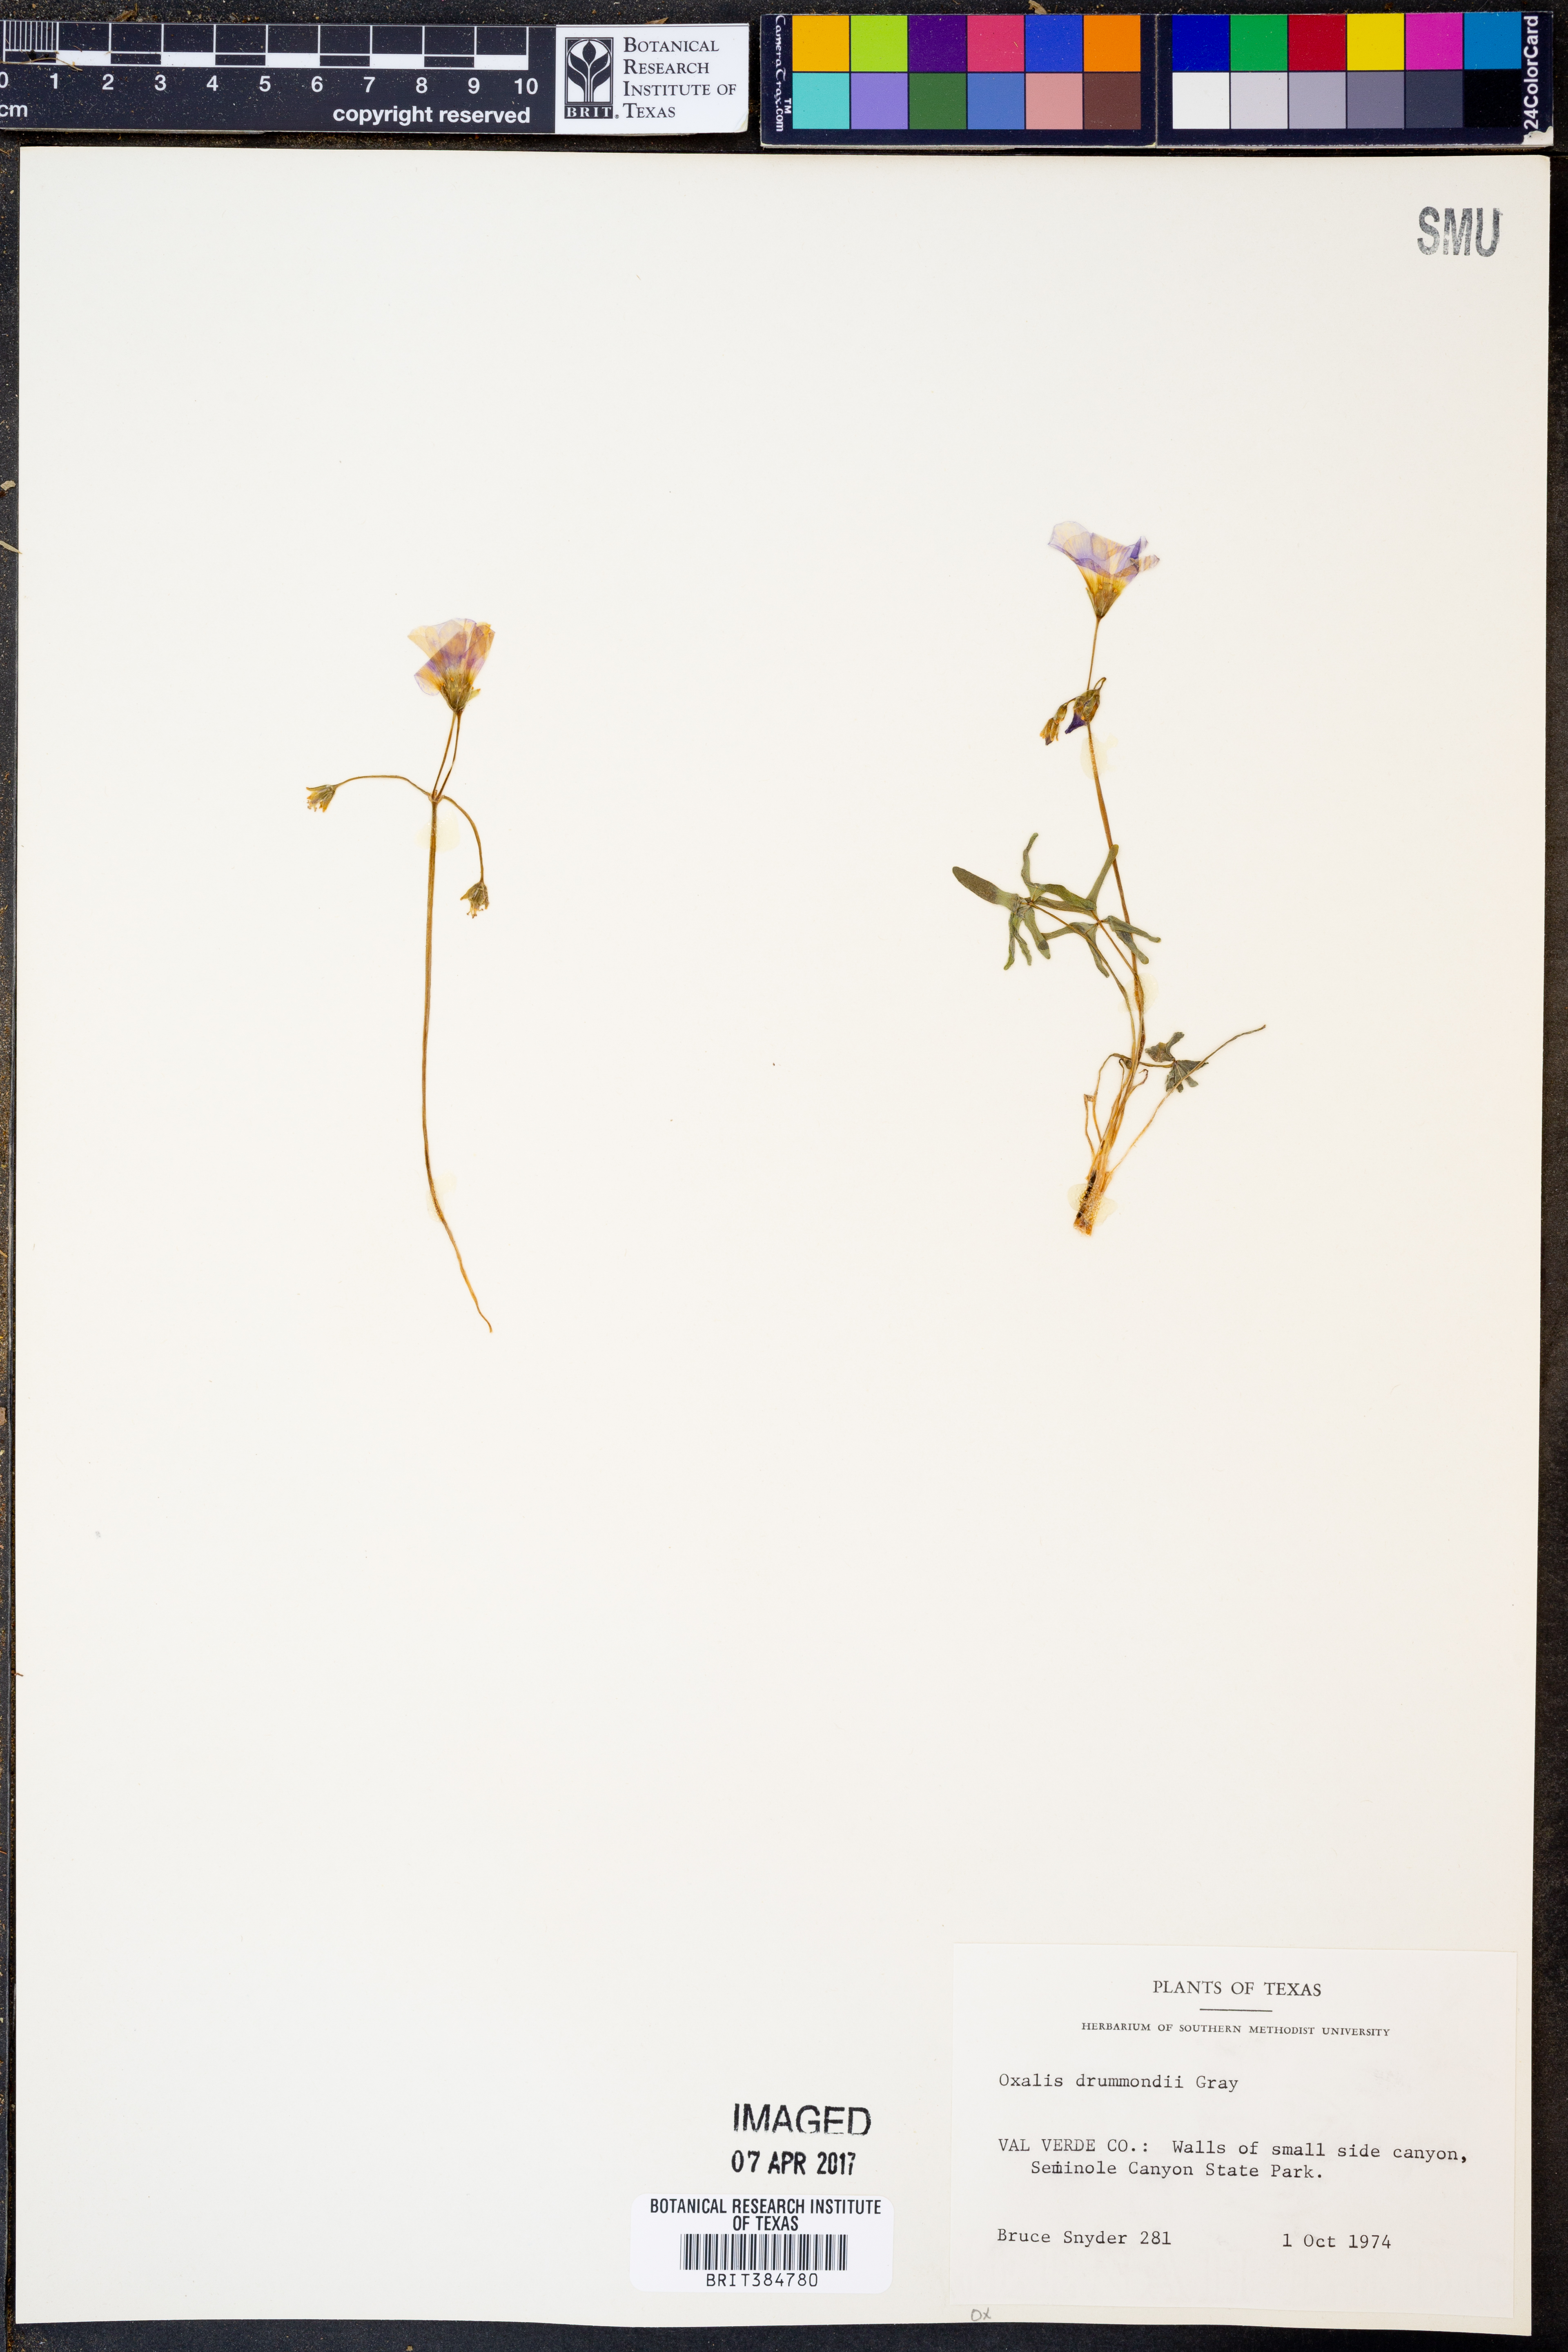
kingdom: Plantae
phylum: Tracheophyta
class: Magnoliopsida
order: Oxalidales
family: Oxalidaceae
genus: Oxalis
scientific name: Oxalis drummondii
